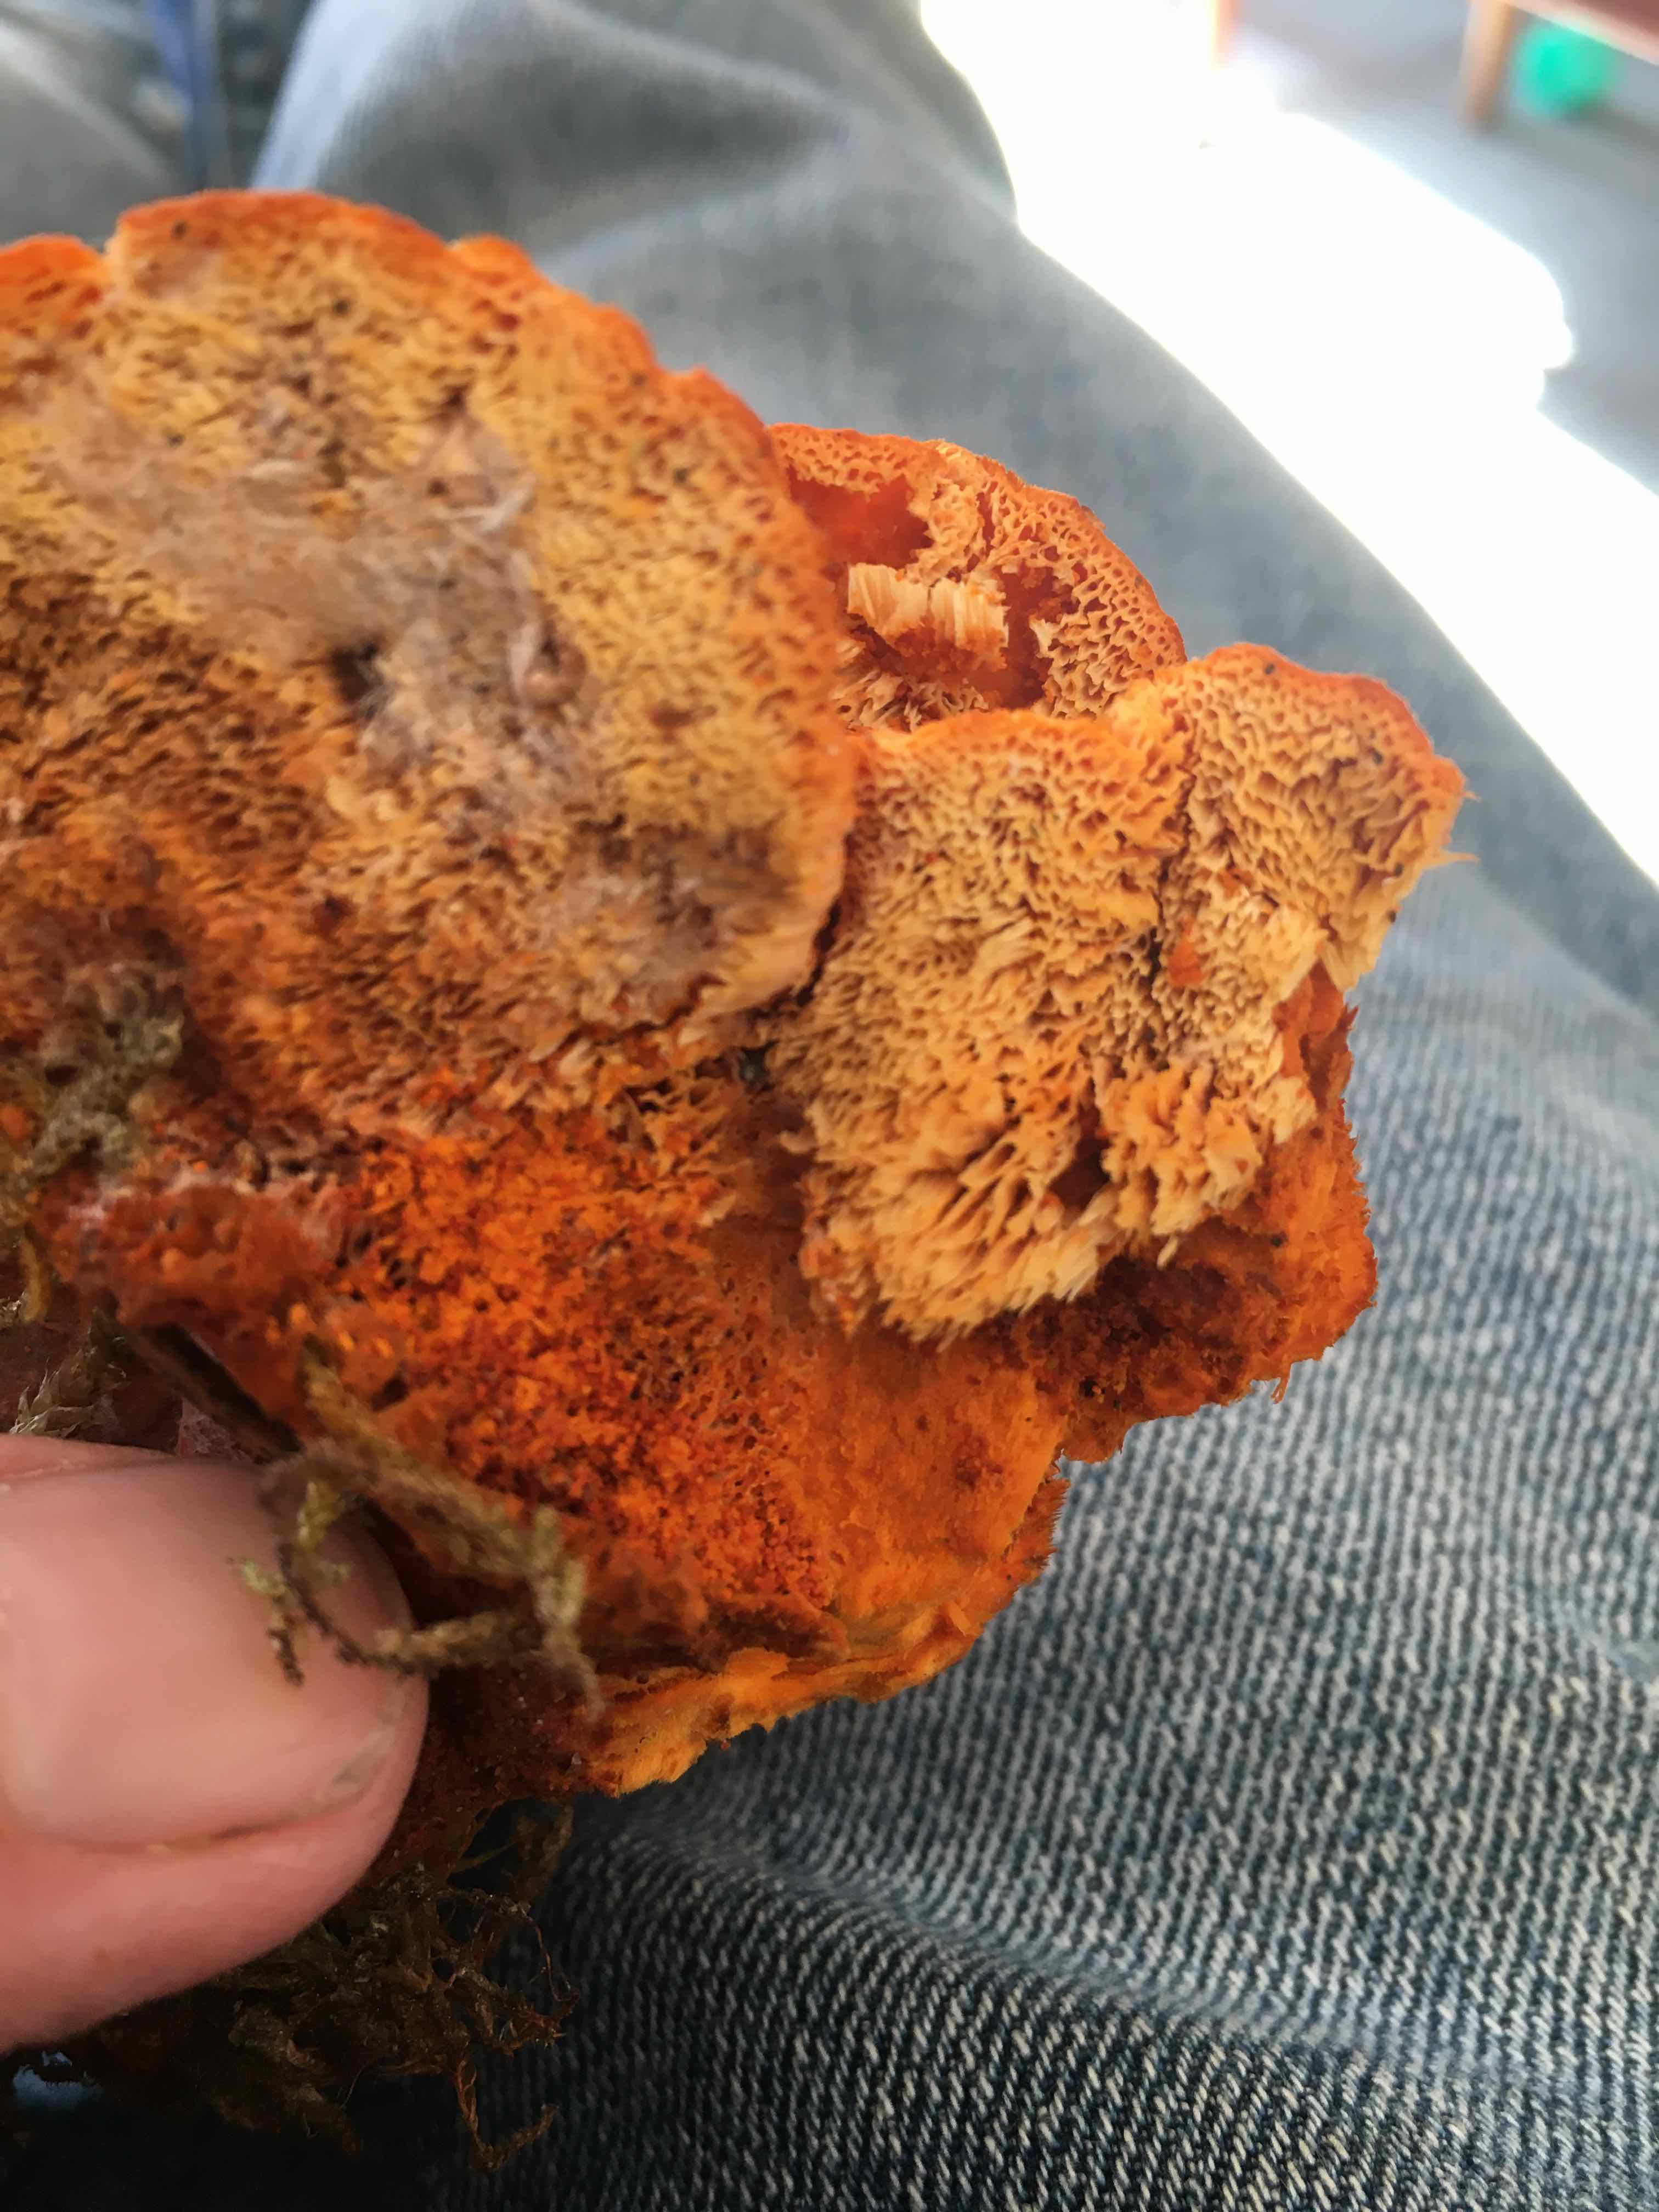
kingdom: Fungi
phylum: Basidiomycota
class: Agaricomycetes
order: Polyporales
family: Pycnoporellaceae
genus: Pycnoporellus
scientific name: Pycnoporellus fulgens
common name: flammeporesvamp
